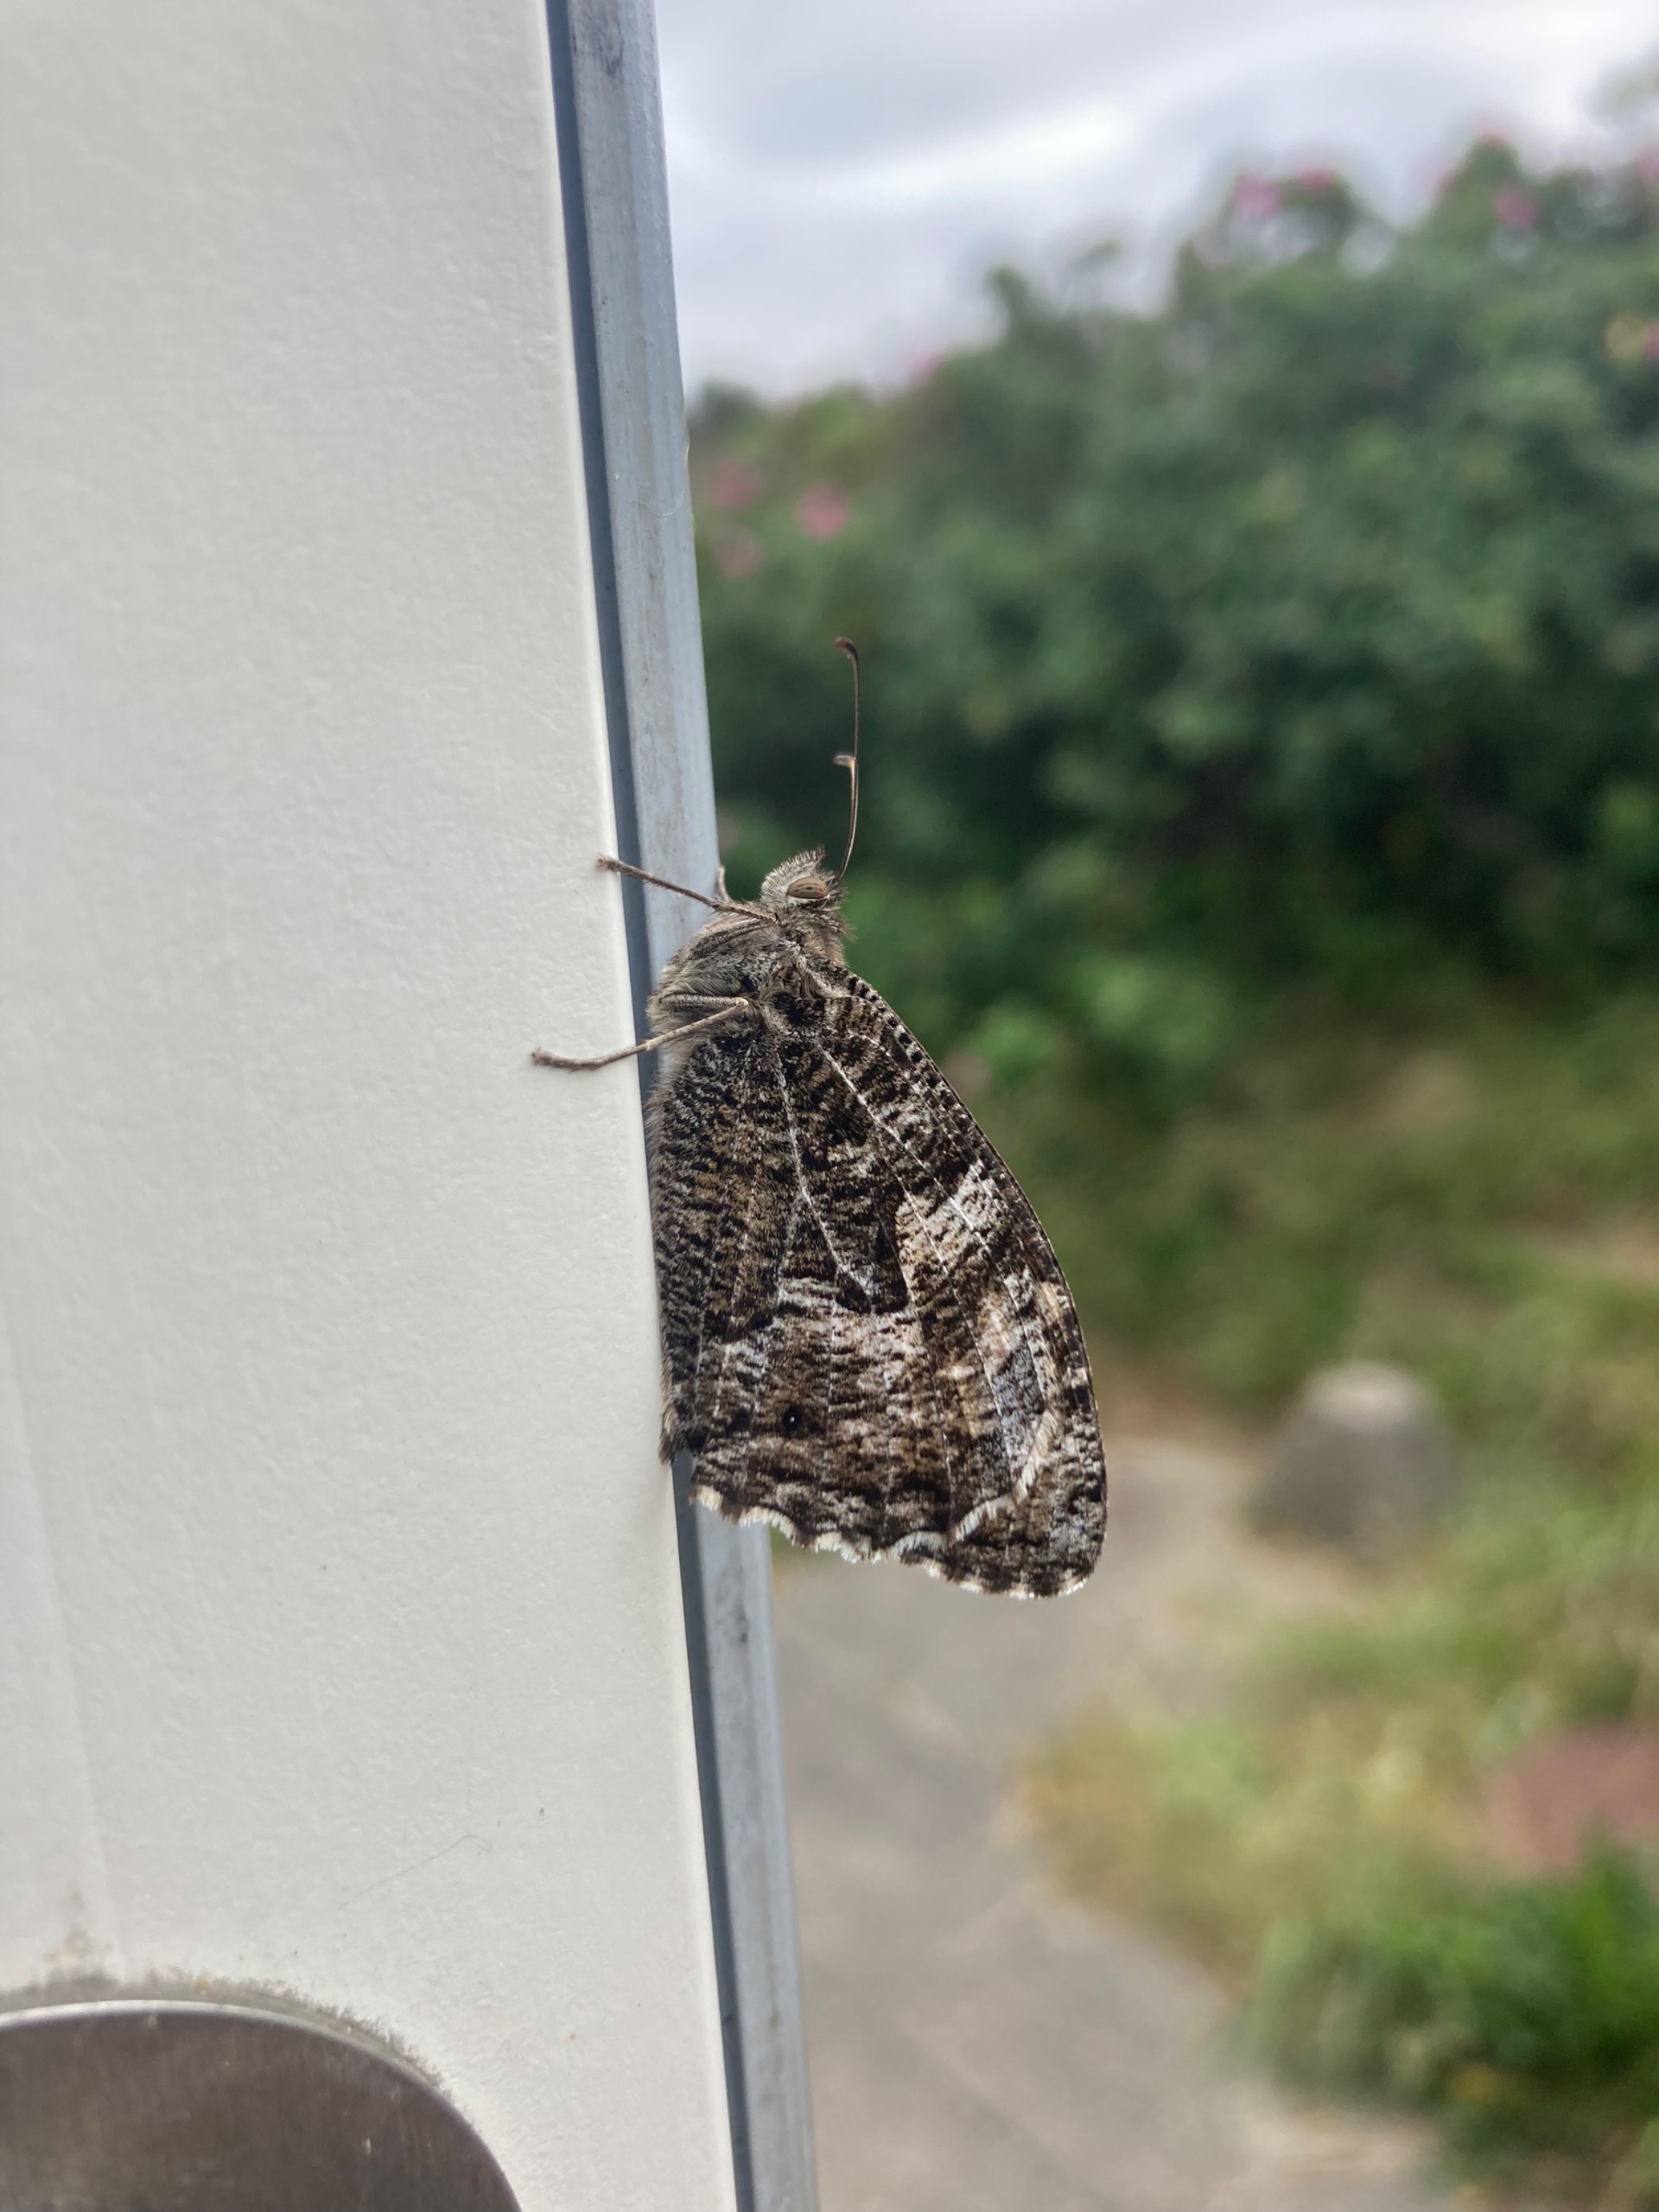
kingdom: Animalia
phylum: Arthropoda
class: Insecta
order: Lepidoptera
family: Nymphalidae
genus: Hipparchia
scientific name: Hipparchia semele
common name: Sandrandøje
